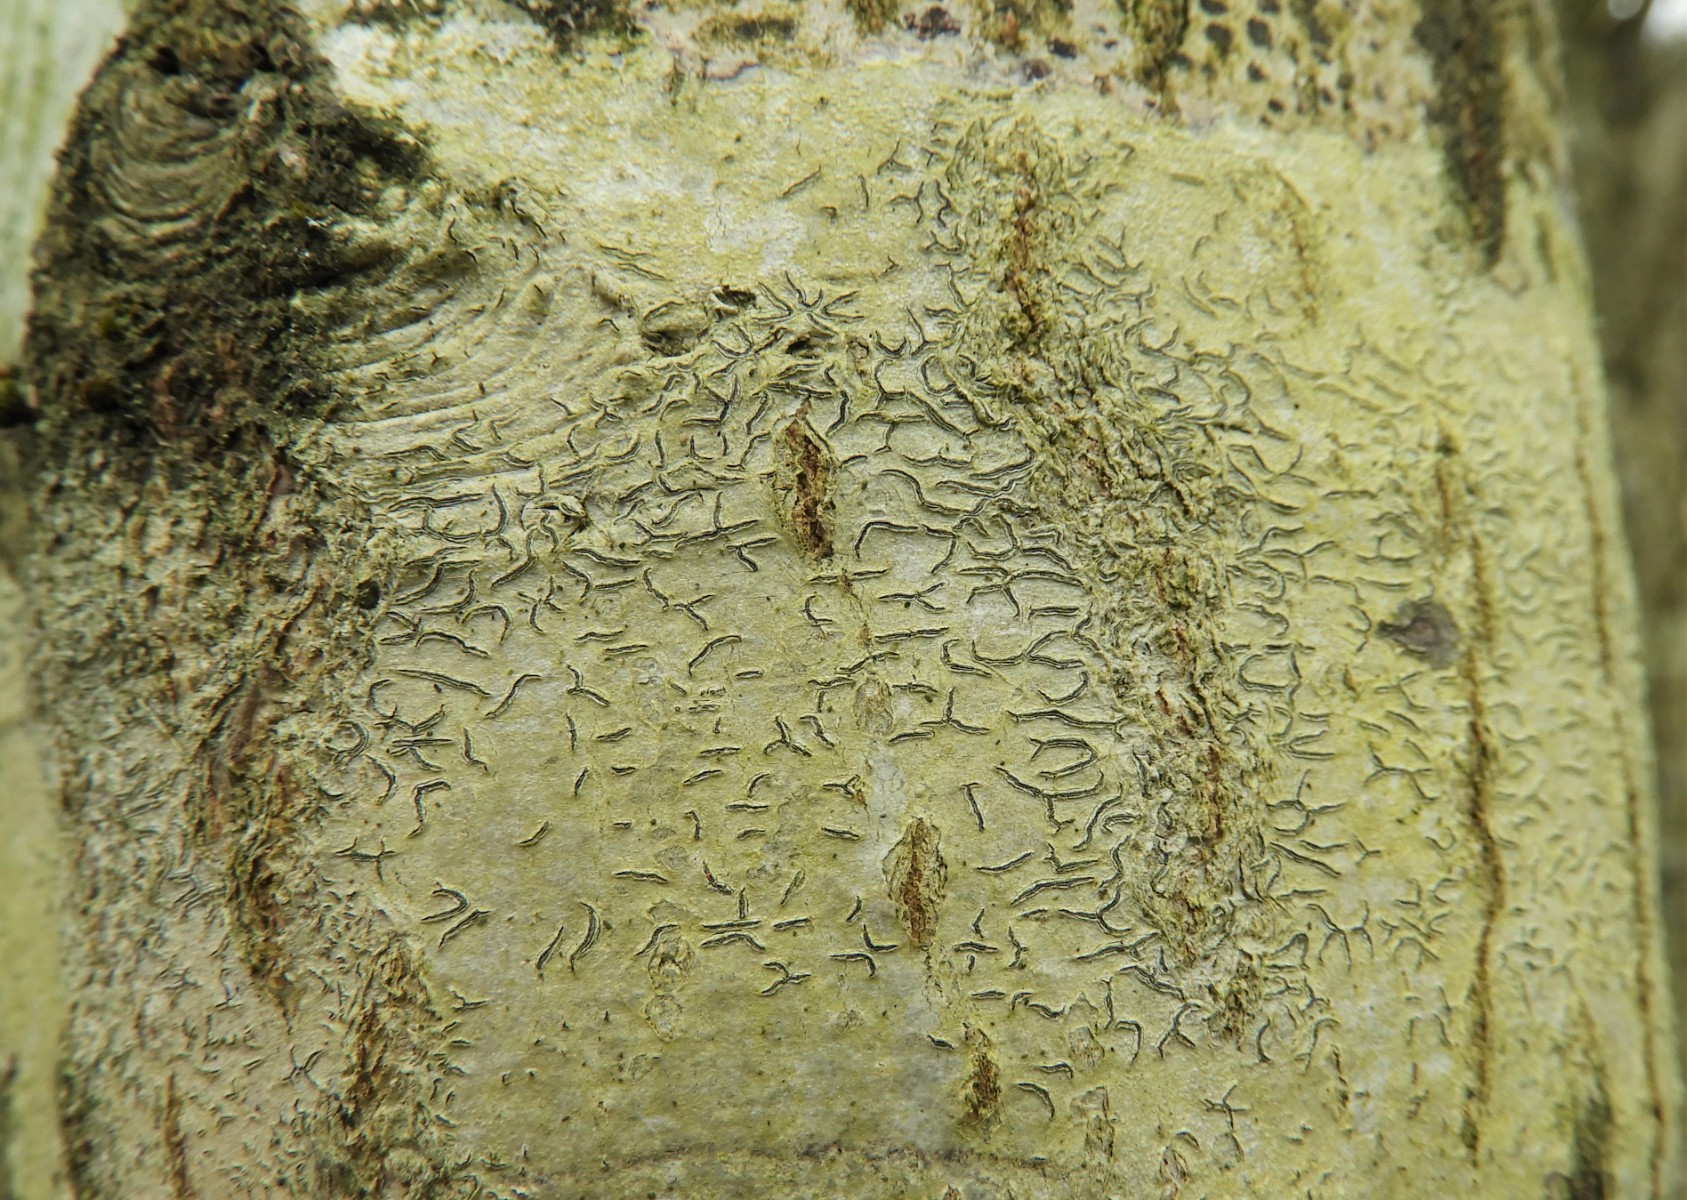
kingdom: Fungi
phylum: Ascomycota
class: Lecanoromycetes
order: Ostropales
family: Graphidaceae
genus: Graphis
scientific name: Graphis scripta
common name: almindelig skriftlav
